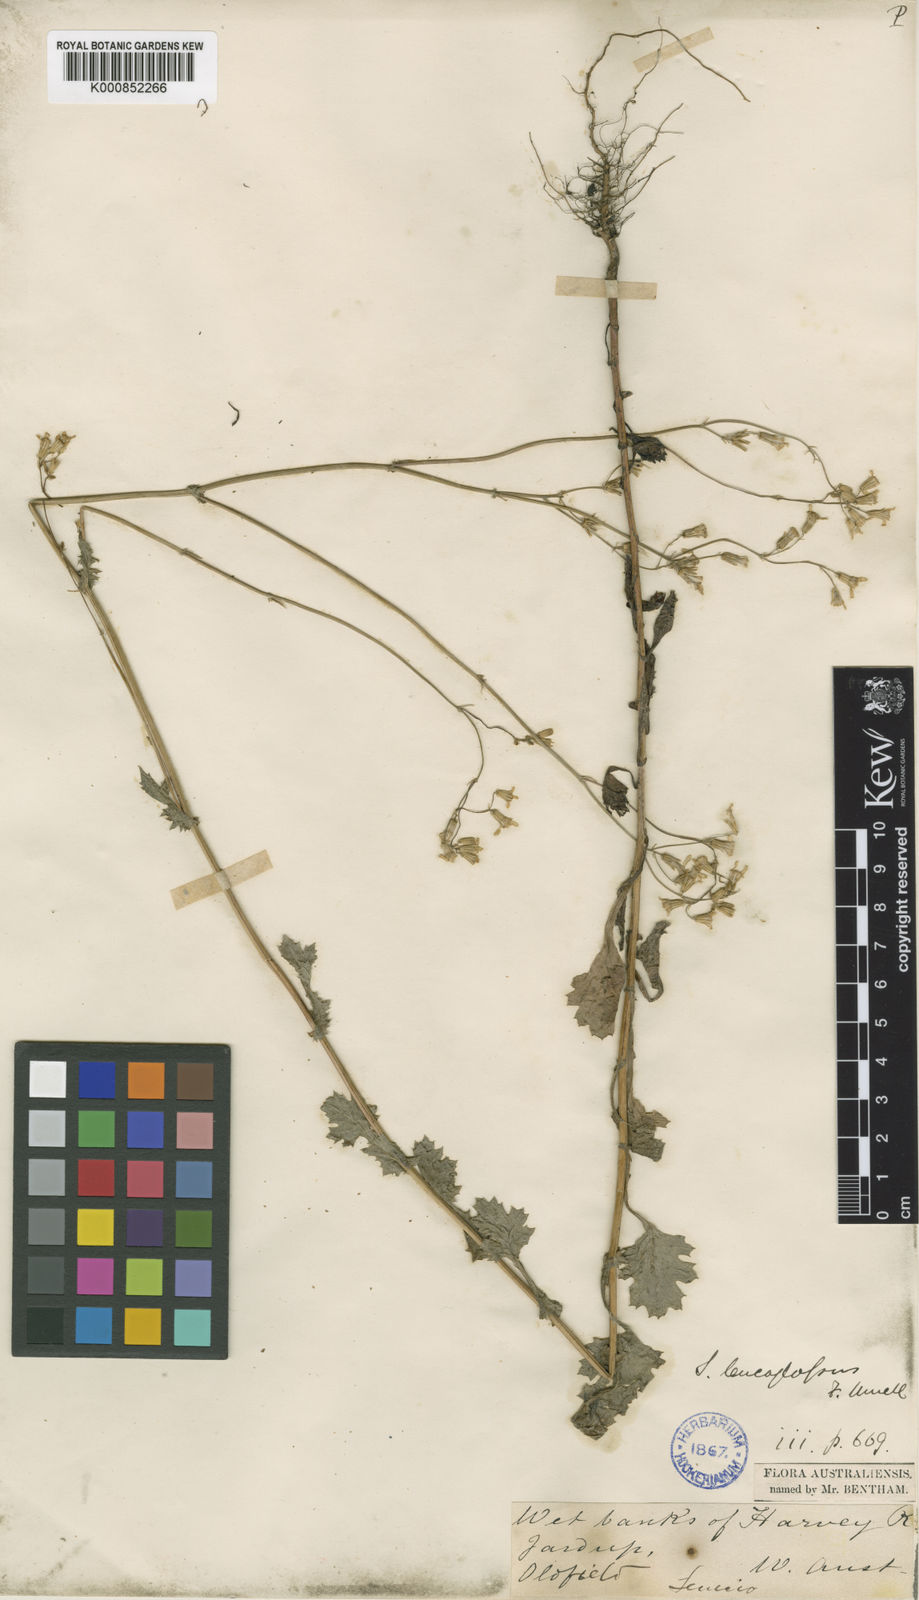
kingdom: Plantae
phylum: Tracheophyta
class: Magnoliopsida
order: Asterales
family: Asteraceae
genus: Senecio
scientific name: Senecio leucoglossus
